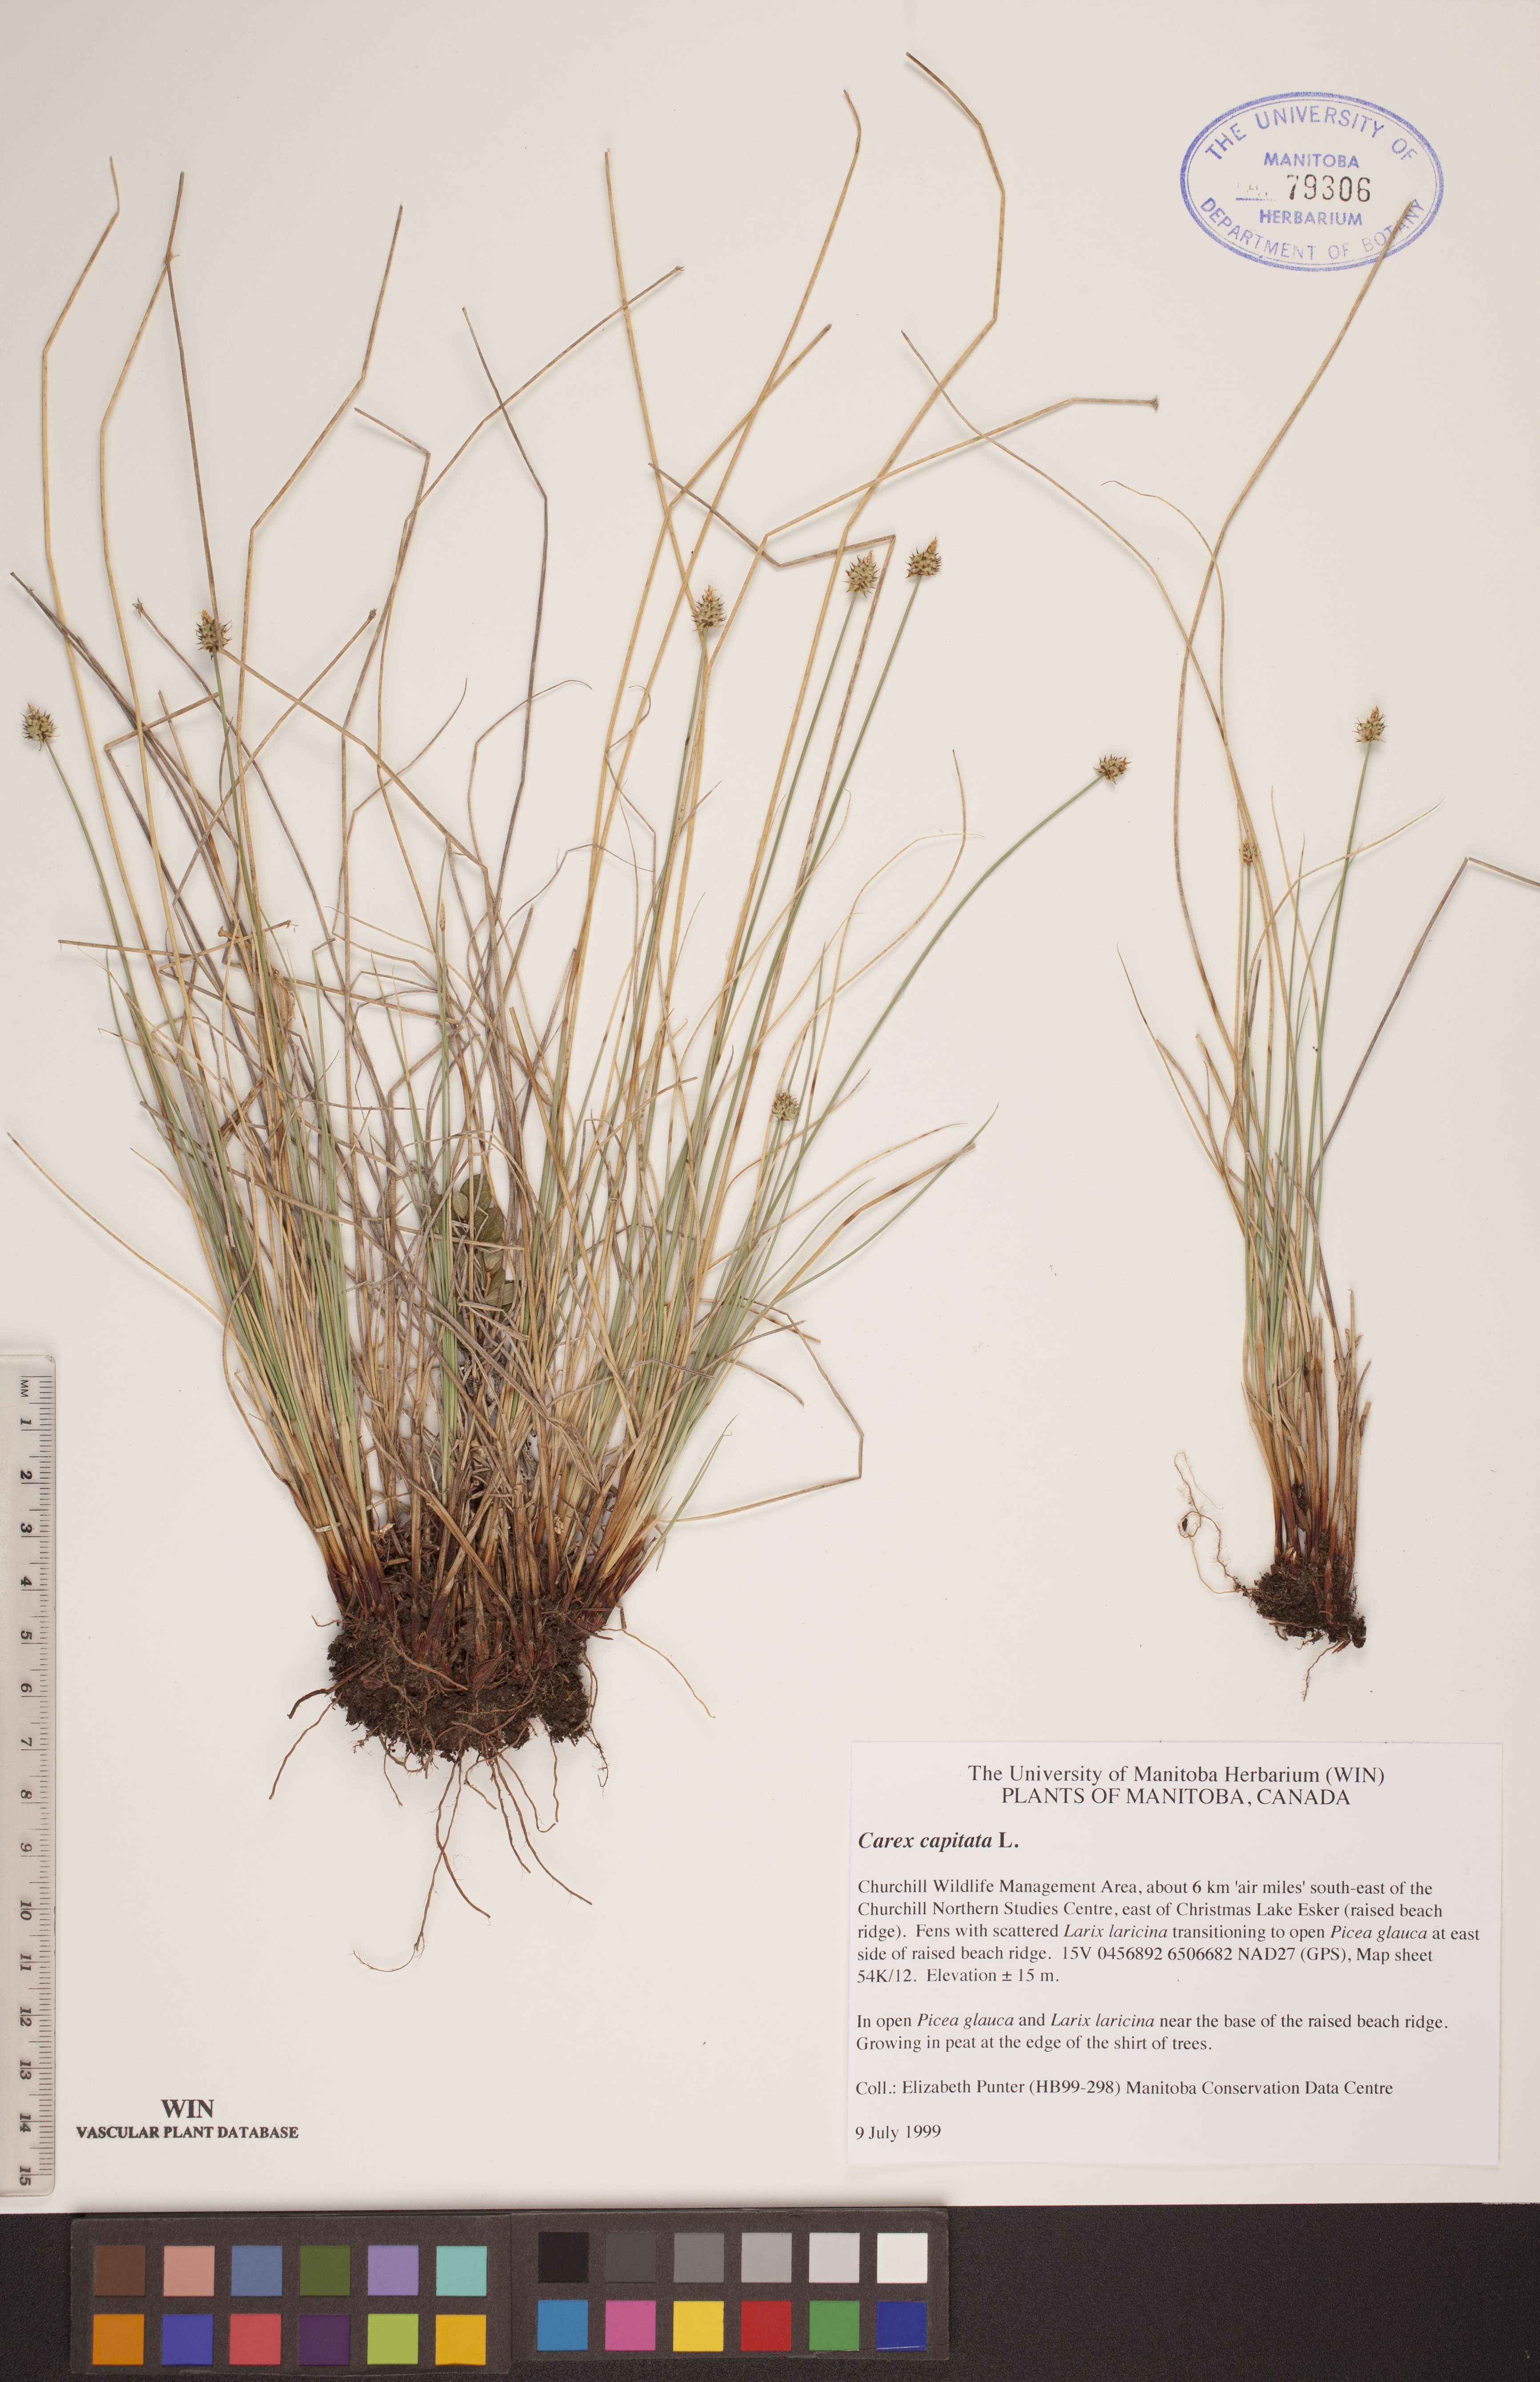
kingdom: Plantae
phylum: Tracheophyta
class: Liliopsida
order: Poales
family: Cyperaceae
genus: Carex
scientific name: Carex capitata
